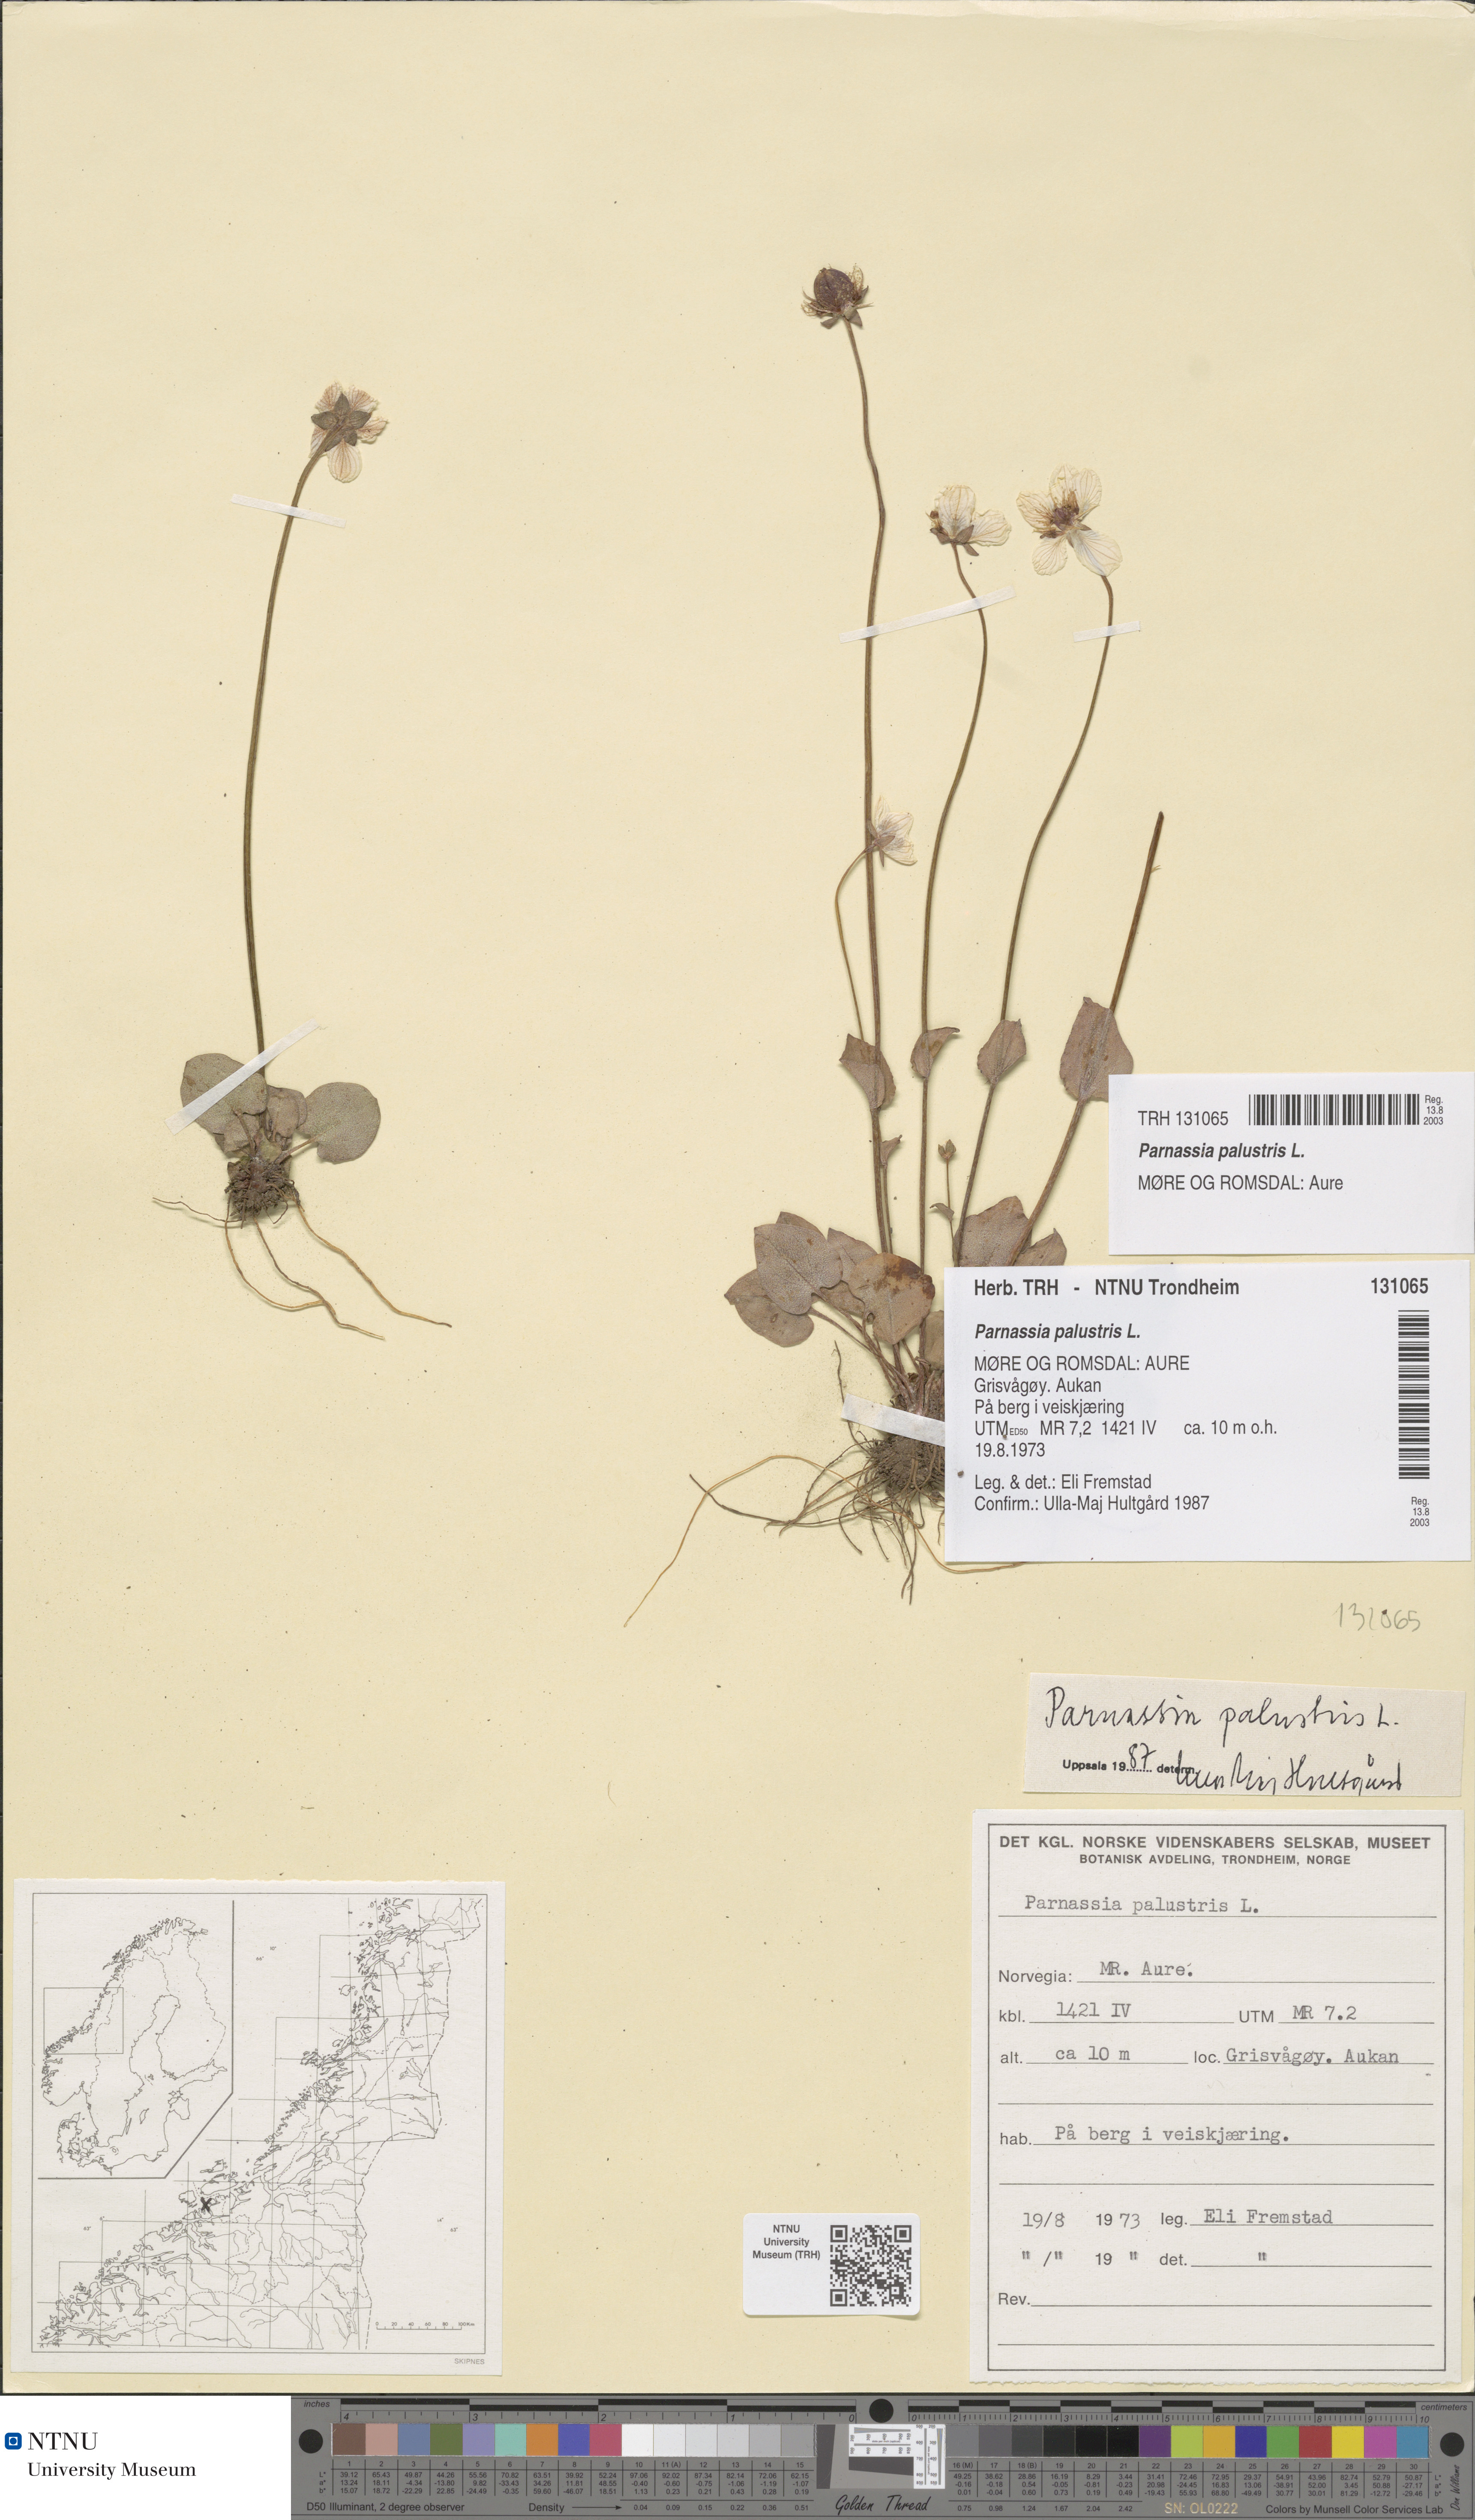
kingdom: Plantae
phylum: Tracheophyta
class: Magnoliopsida
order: Celastrales
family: Parnassiaceae
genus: Parnassia
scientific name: Parnassia palustris
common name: Grass-of-parnassus
